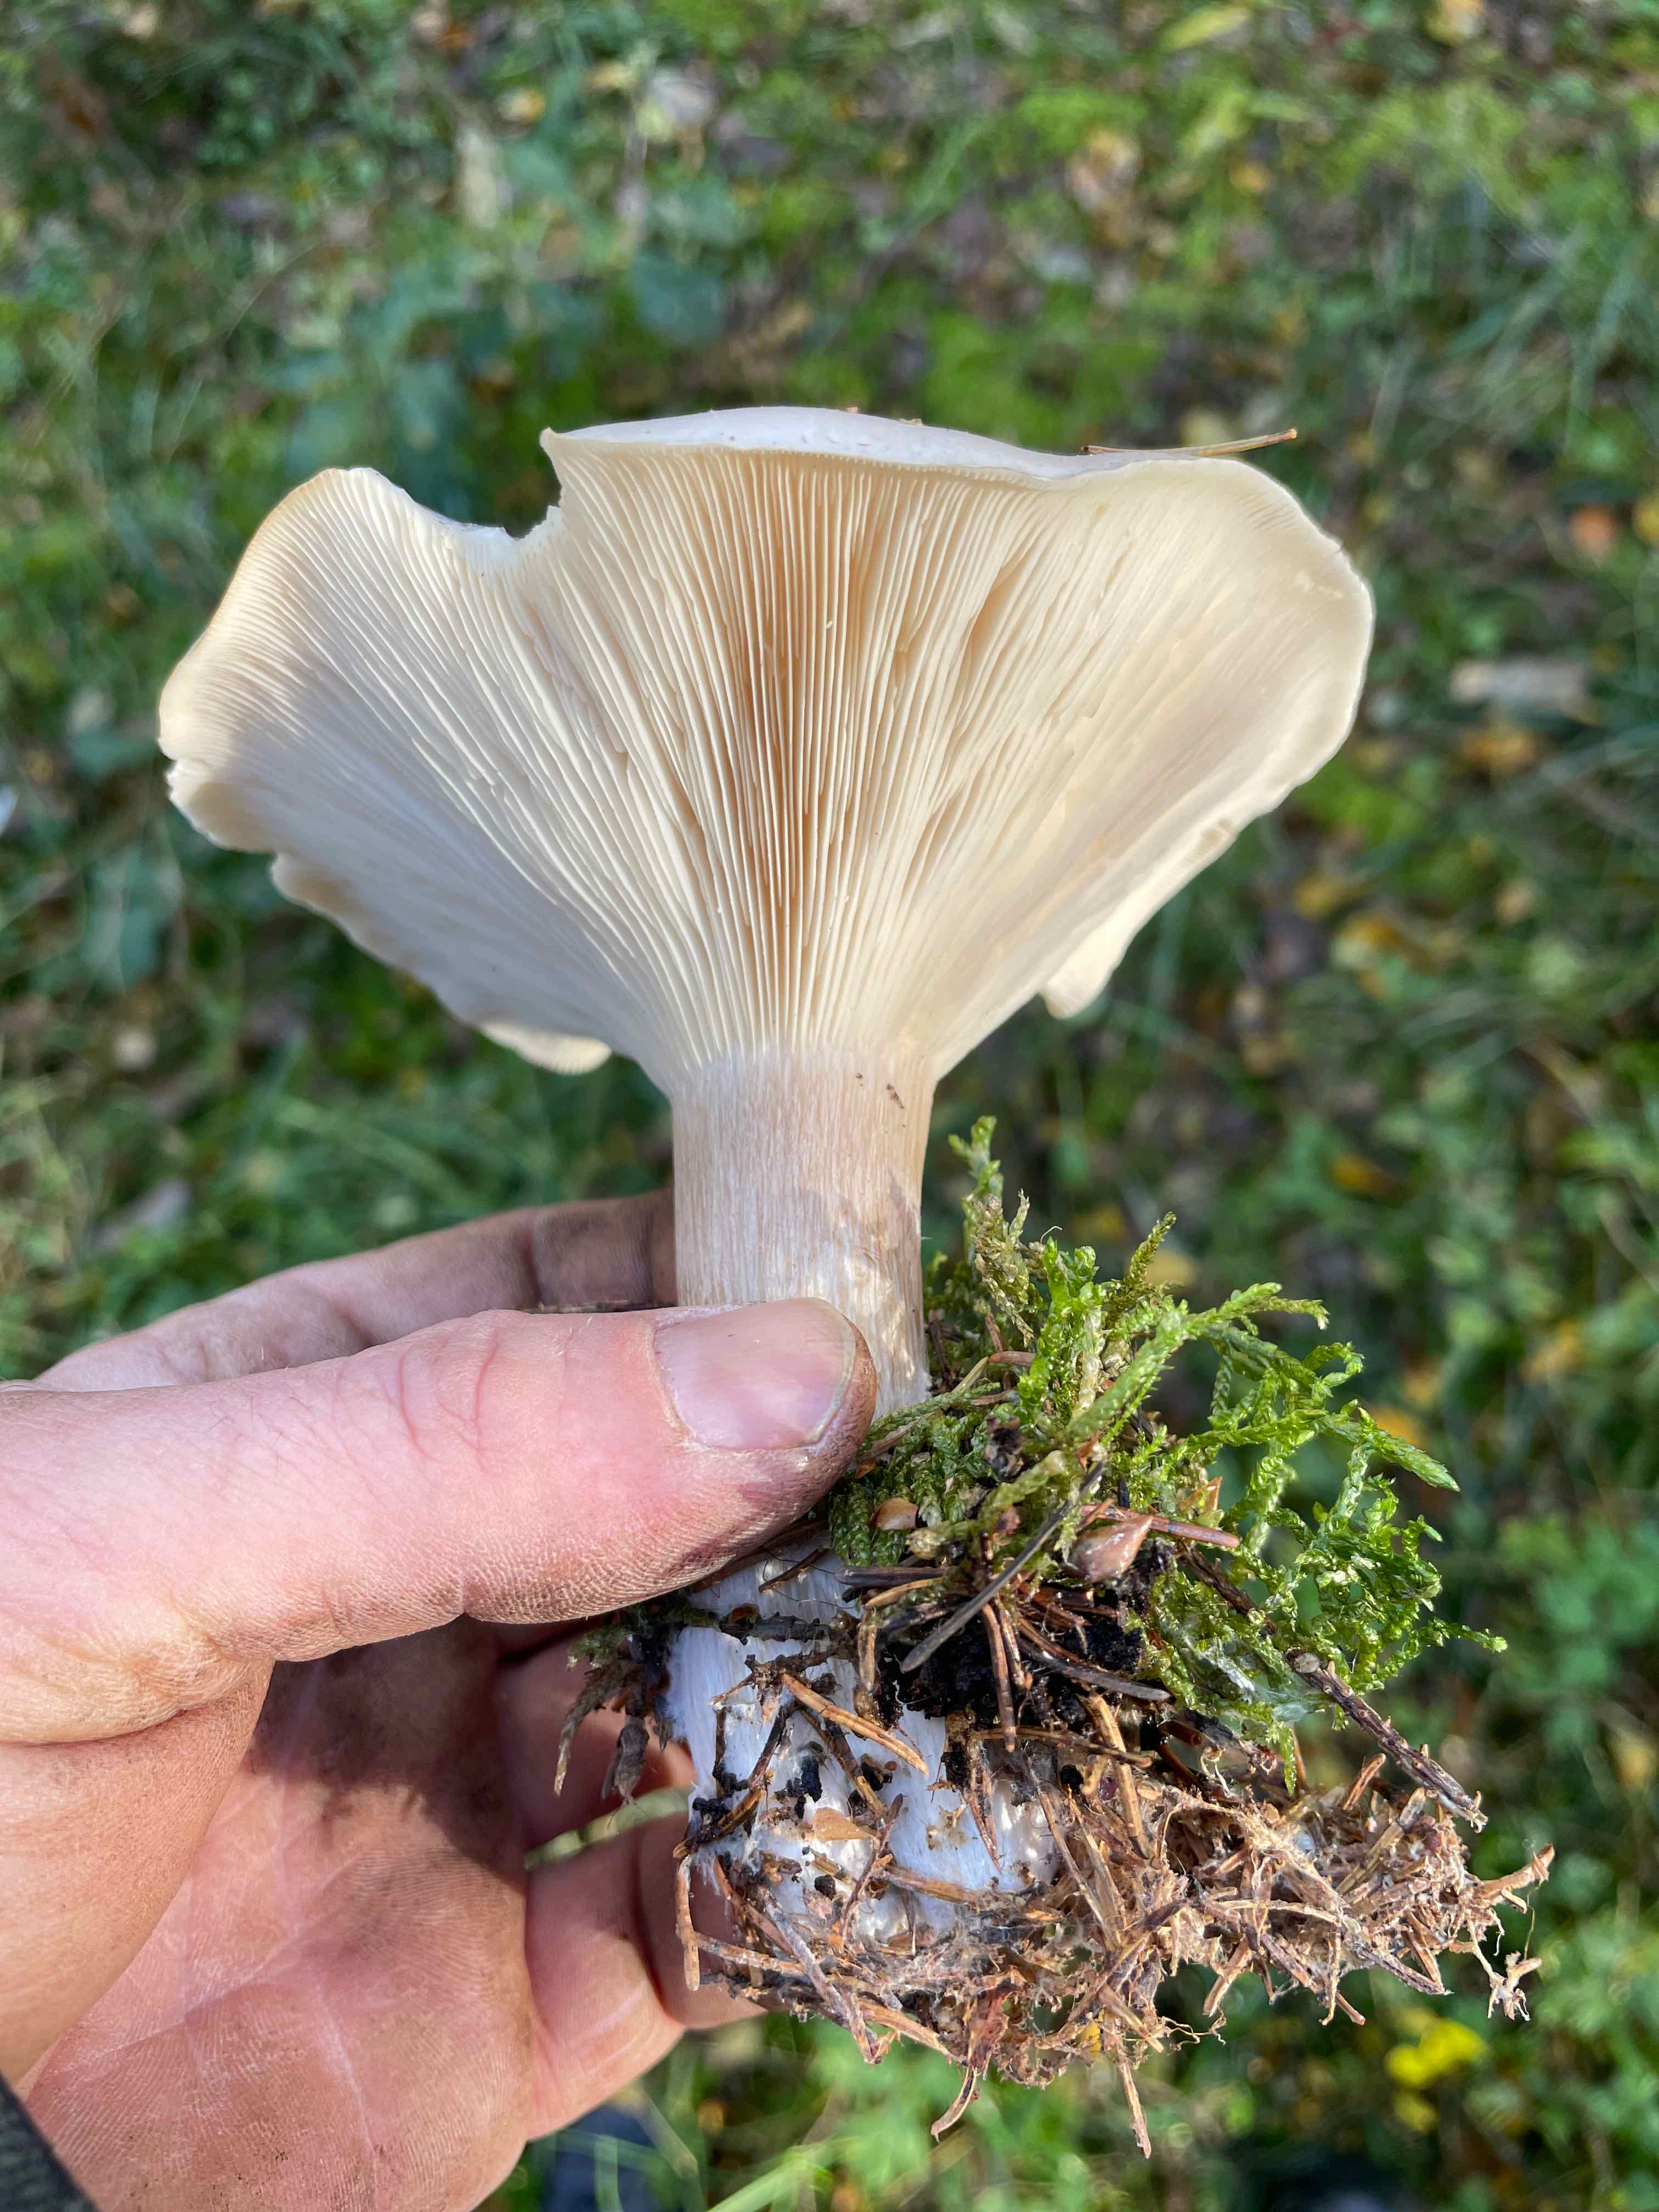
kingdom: Fungi
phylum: Basidiomycota
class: Agaricomycetes
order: Agaricales
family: Tricholomataceae
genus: Clitocybe
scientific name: Clitocybe nebularis
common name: tåge-tragthat
